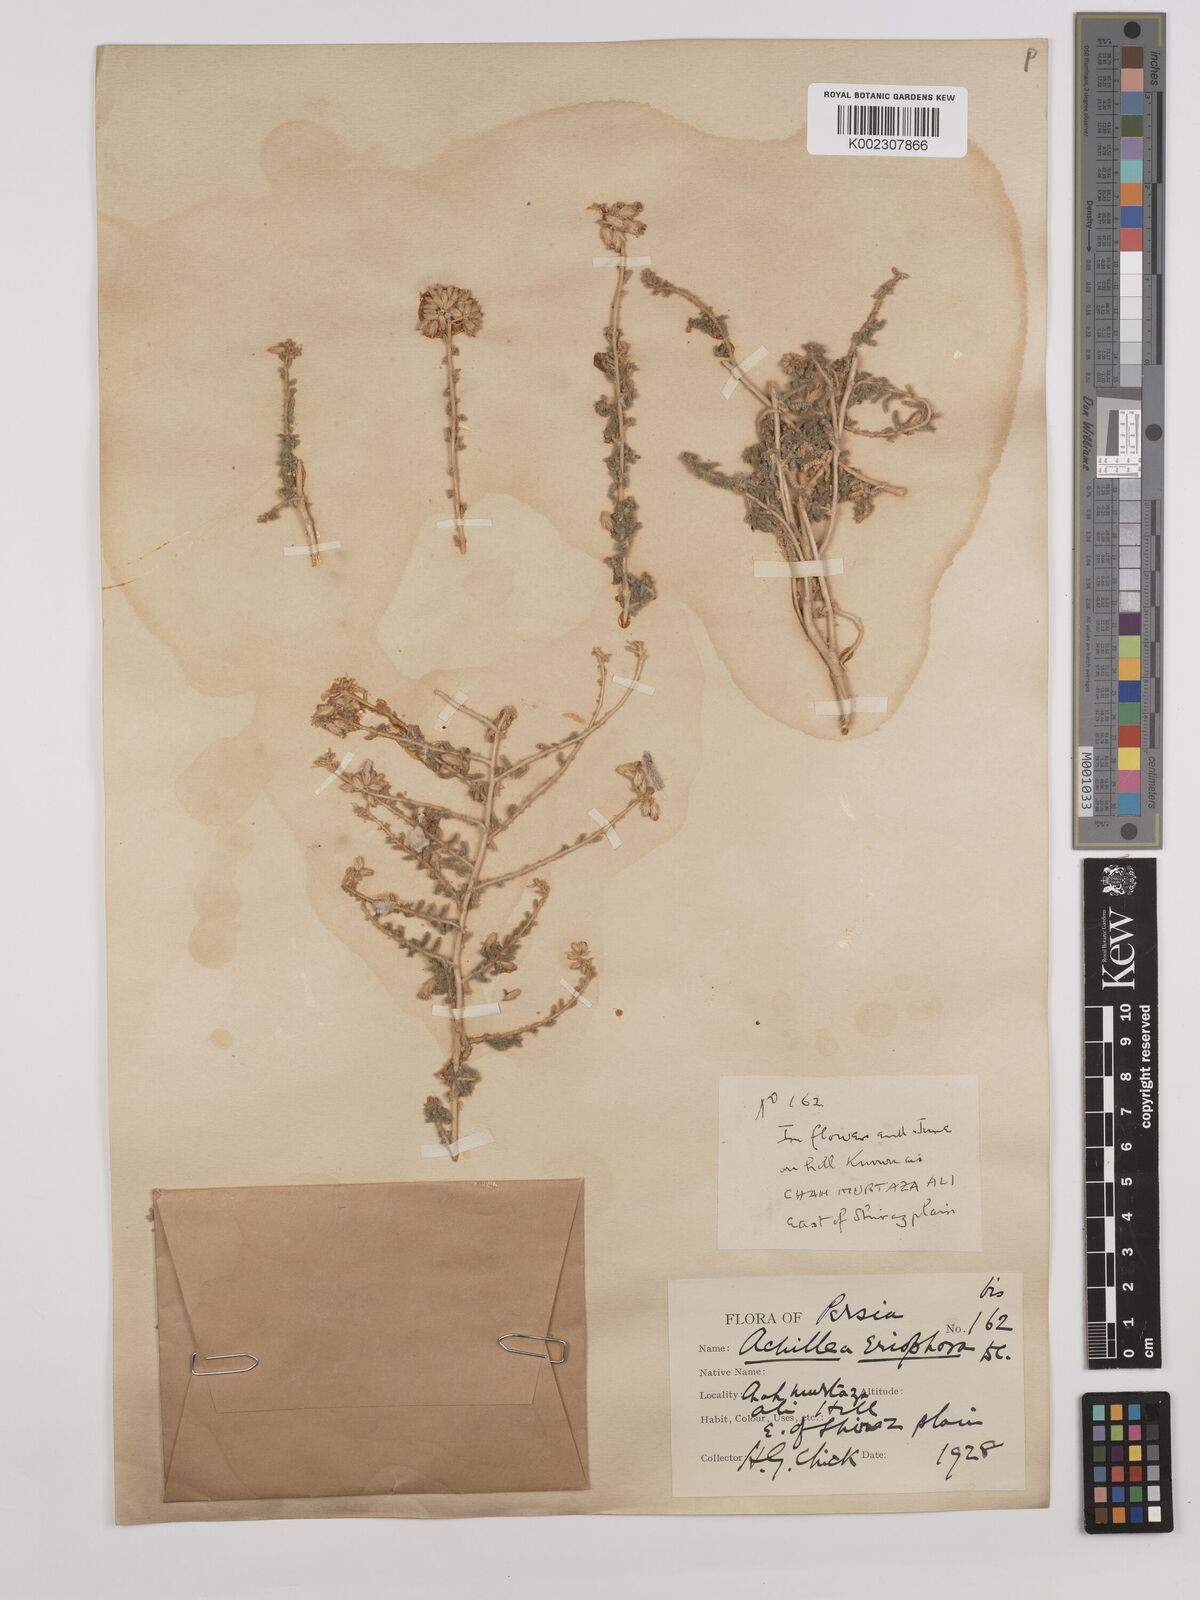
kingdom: Plantae
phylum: Tracheophyta
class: Magnoliopsida
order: Asterales
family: Asteraceae
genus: Achillea
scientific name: Achillea wilhelmsii
